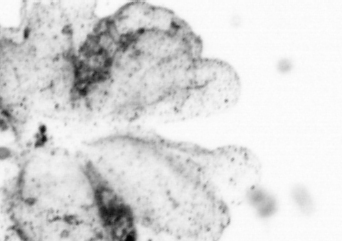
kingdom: Animalia
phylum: Chordata
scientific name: Chordata
